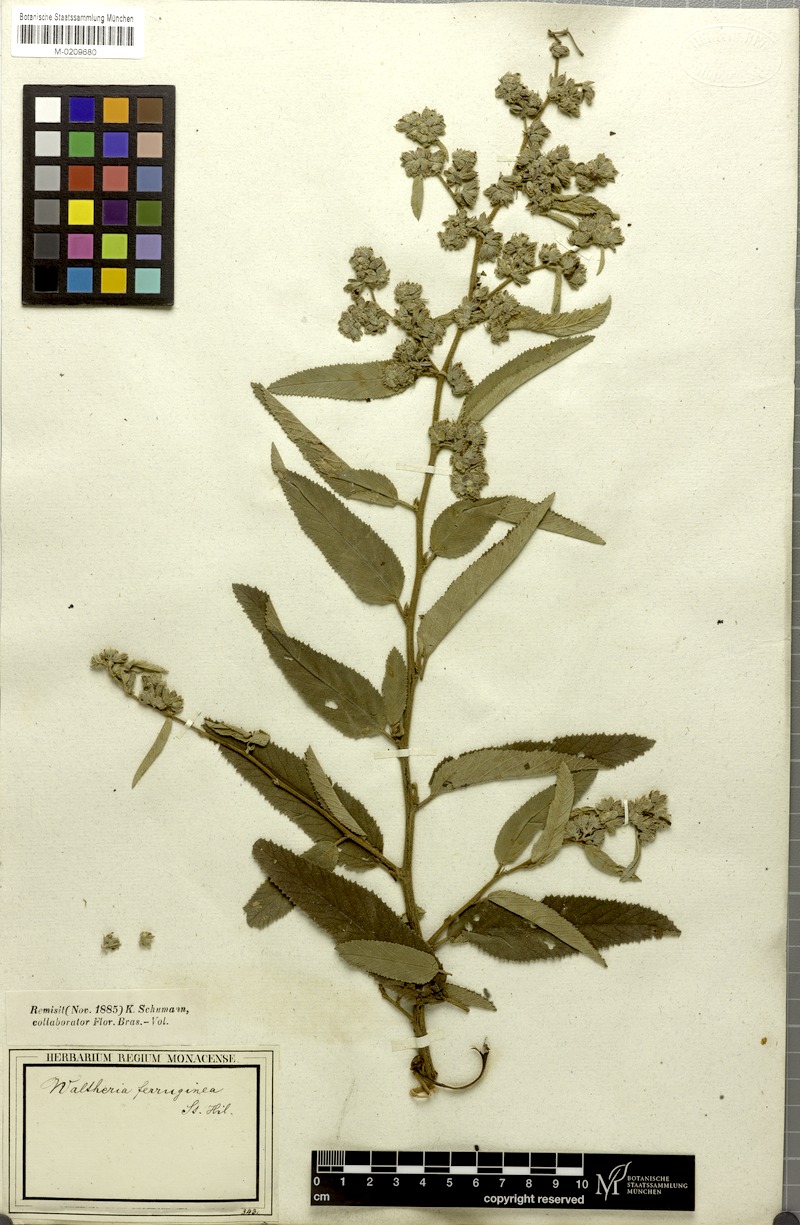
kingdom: Plantae
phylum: Tracheophyta
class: Magnoliopsida
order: Malvales
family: Malvaceae
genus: Waltheria
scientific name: Waltheria ferruginea
